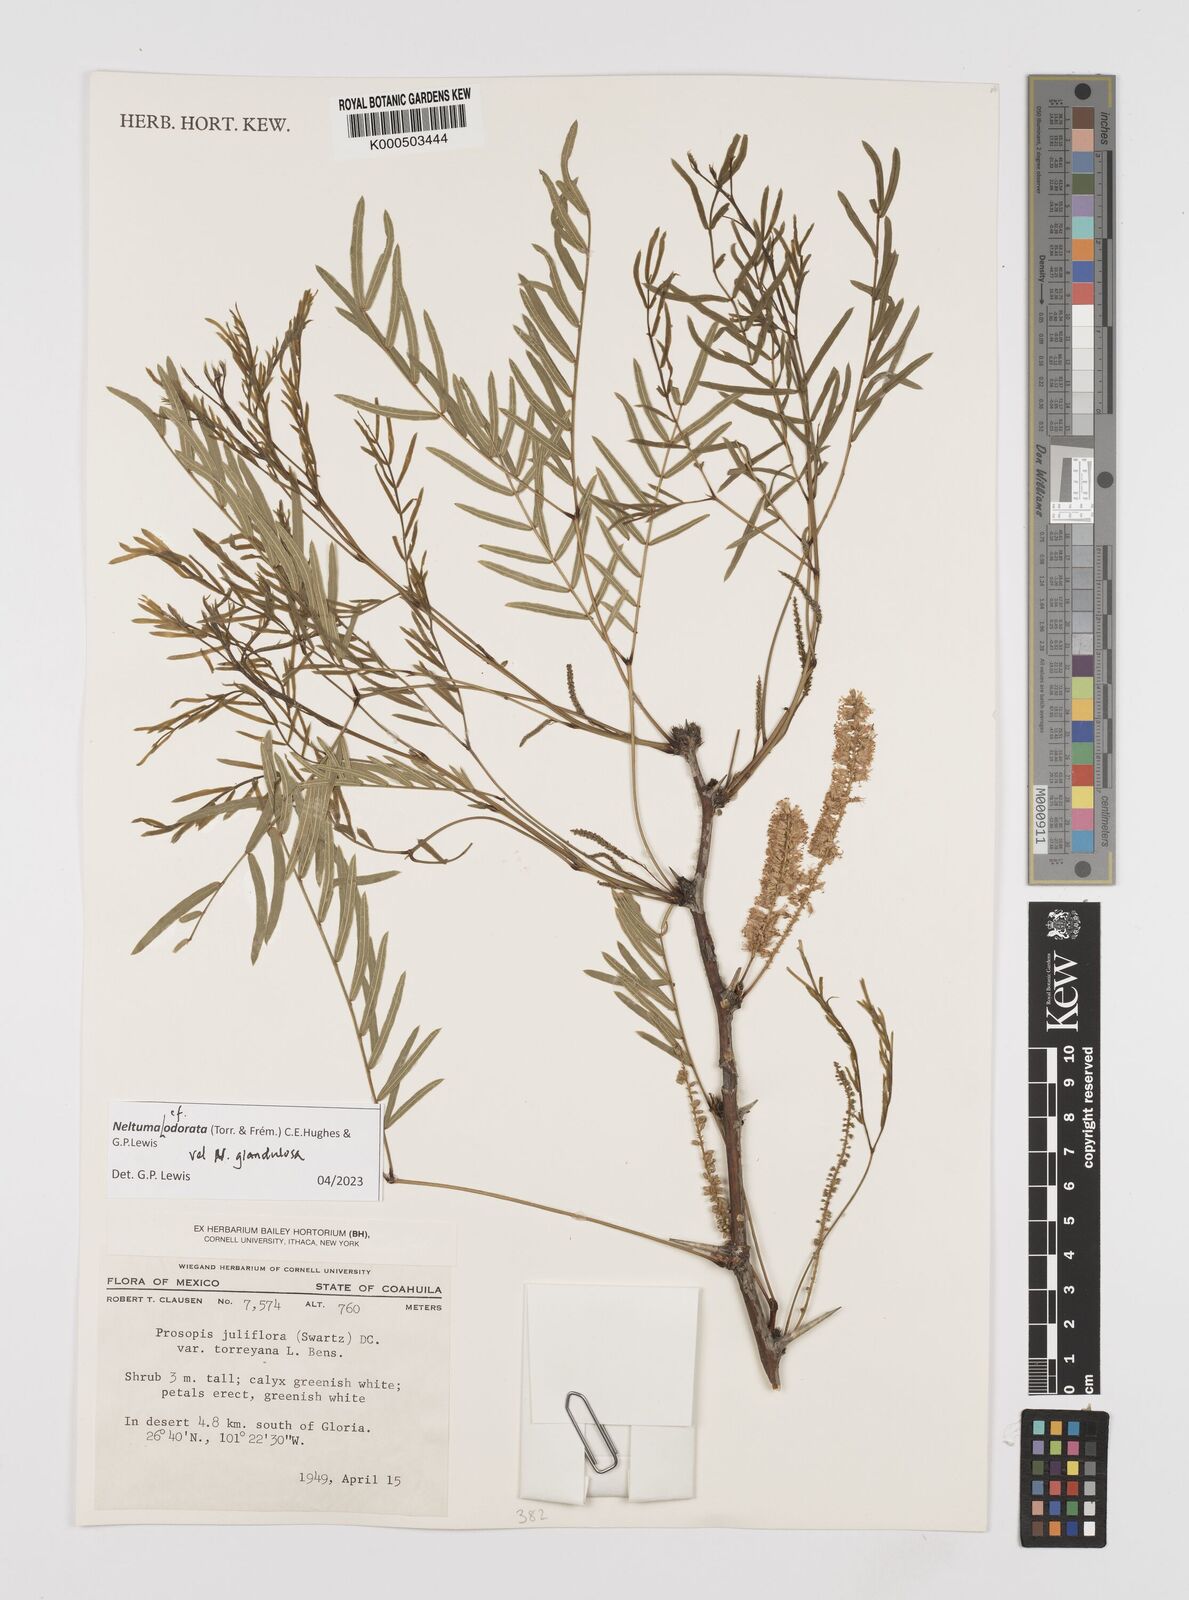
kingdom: Plantae
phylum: Tracheophyta
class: Magnoliopsida
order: Fabales
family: Fabaceae
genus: Prosopis
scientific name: Prosopis glandulosa
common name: Honey mesquite
